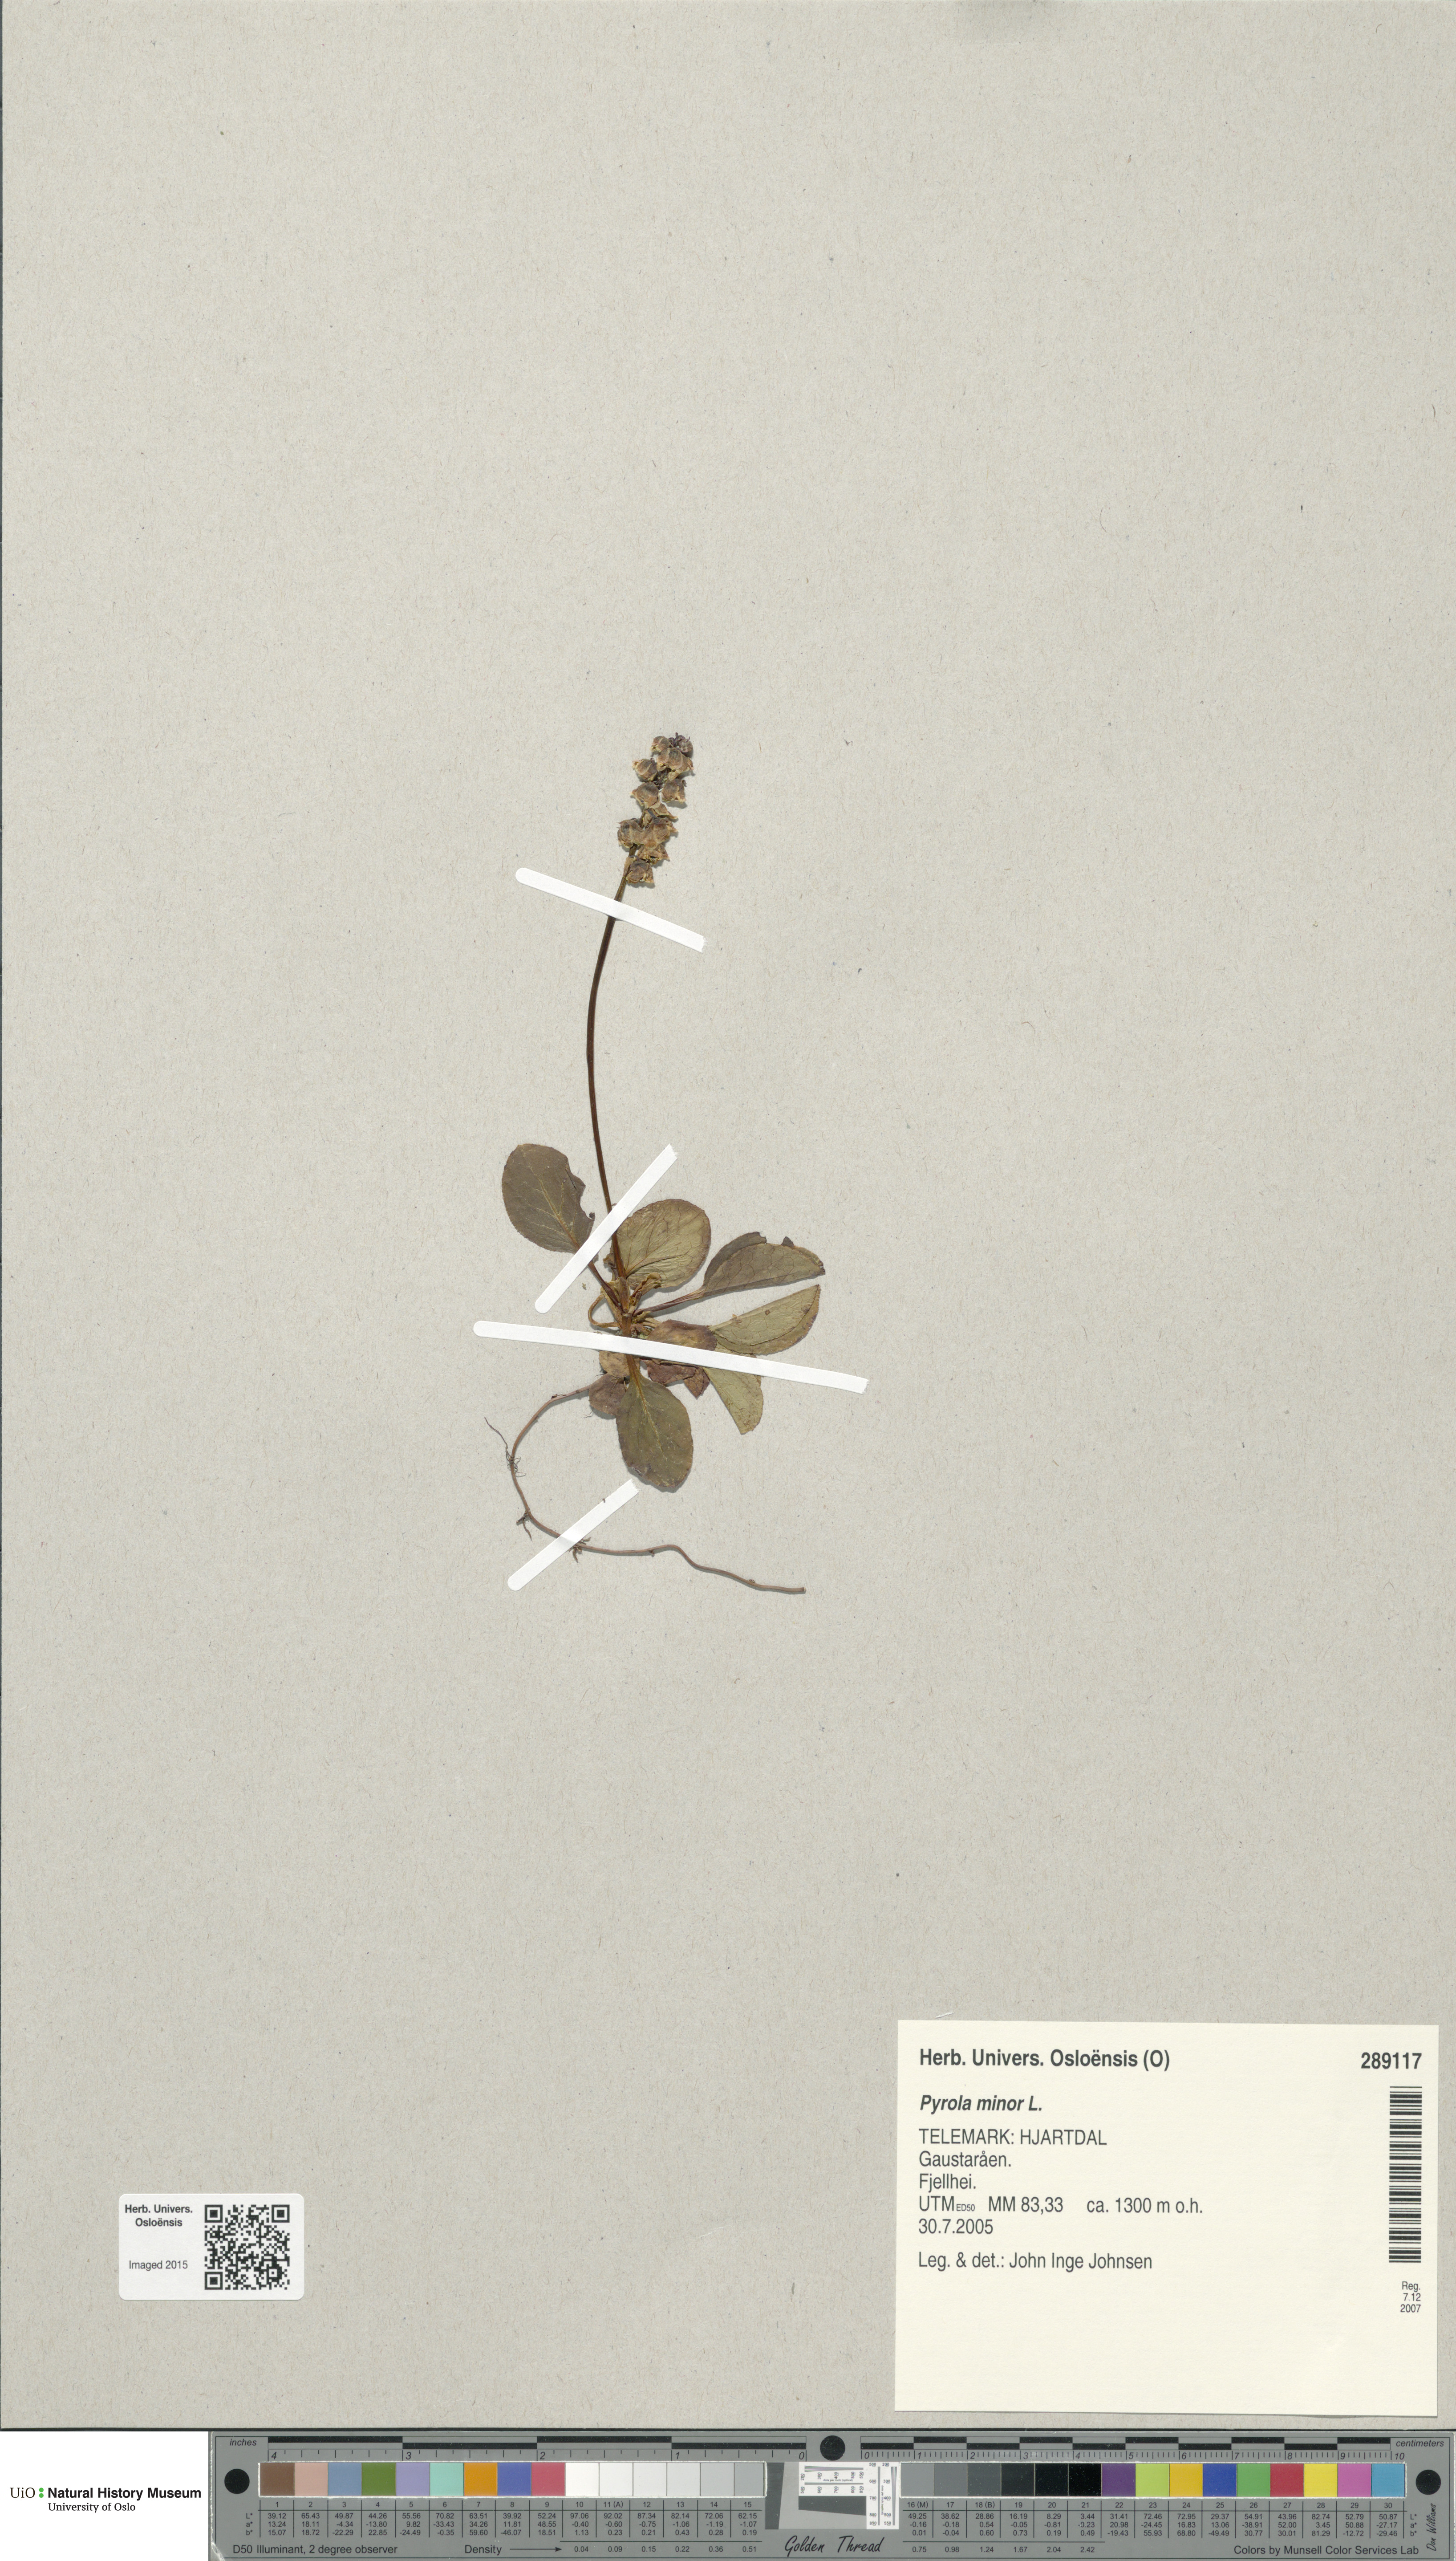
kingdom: Plantae
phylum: Tracheophyta
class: Magnoliopsida
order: Ericales
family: Ericaceae
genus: Pyrola
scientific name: Pyrola minor
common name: Common wintergreen
